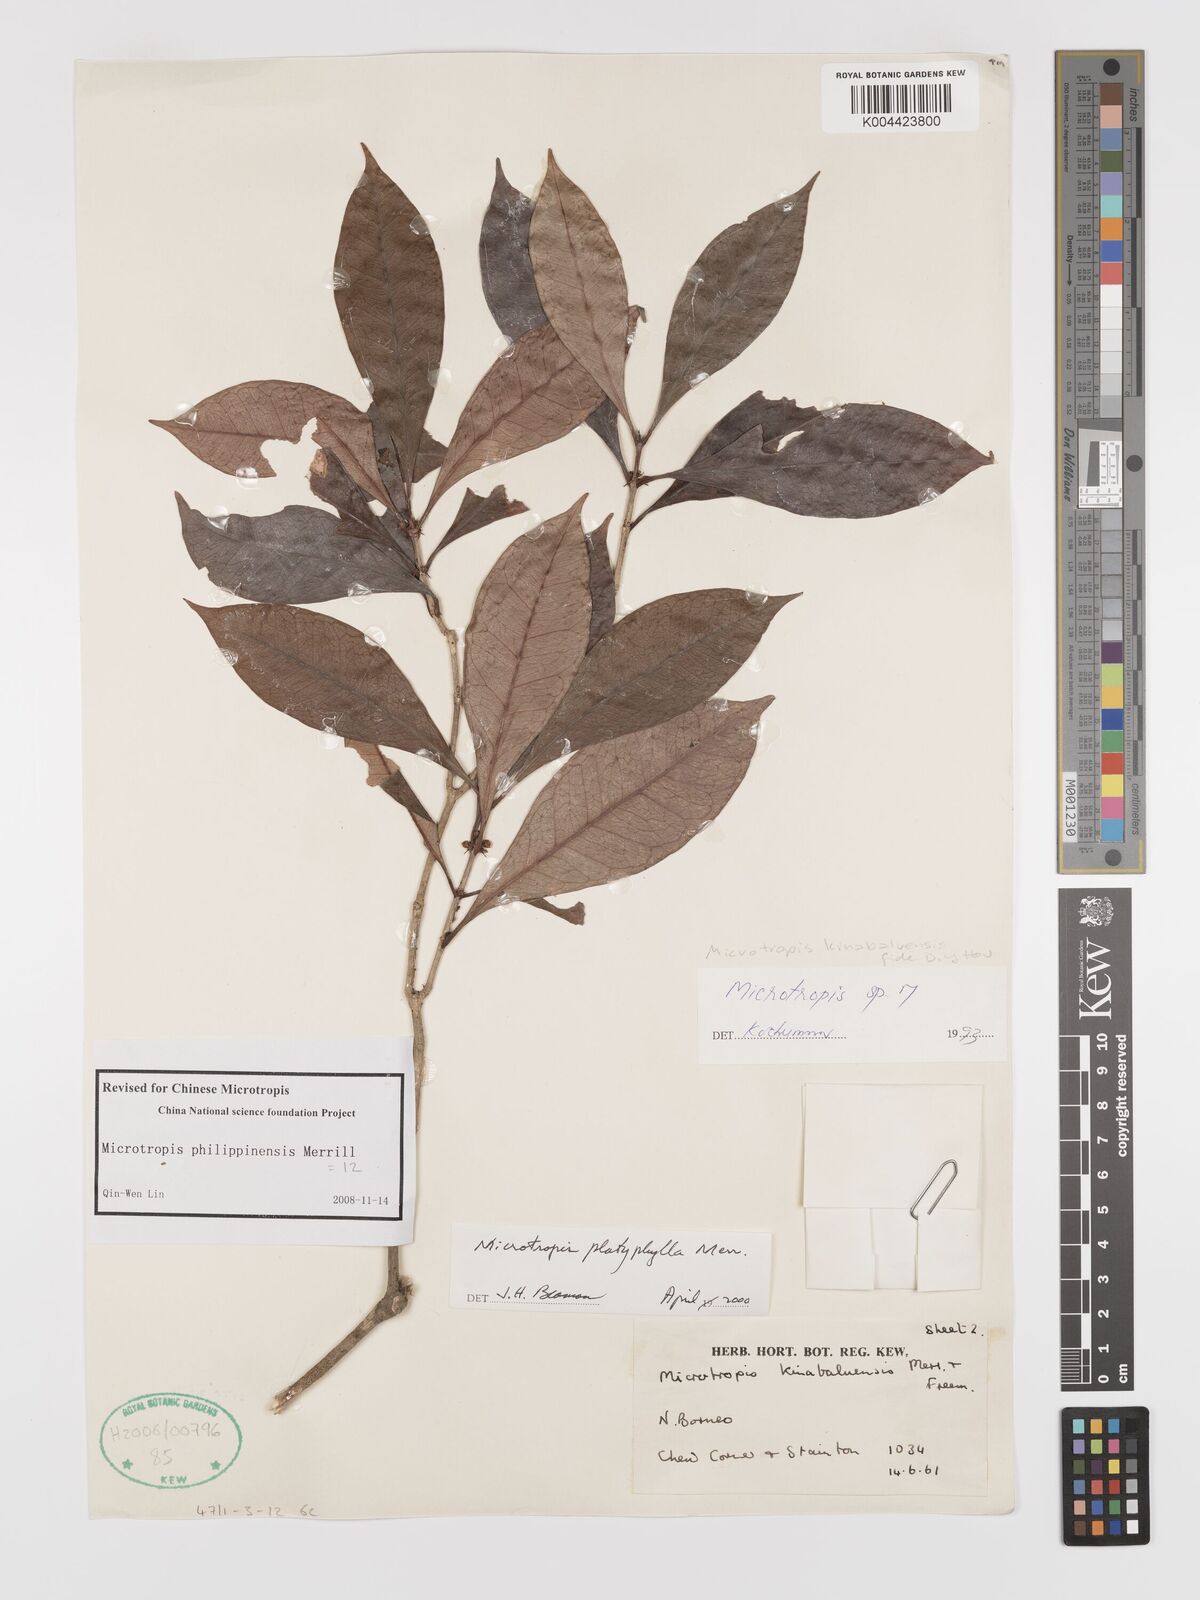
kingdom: Plantae
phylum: Tracheophyta
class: Magnoliopsida
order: Celastrales
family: Celastraceae
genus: Microtropis
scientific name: Microtropis platyphylla
